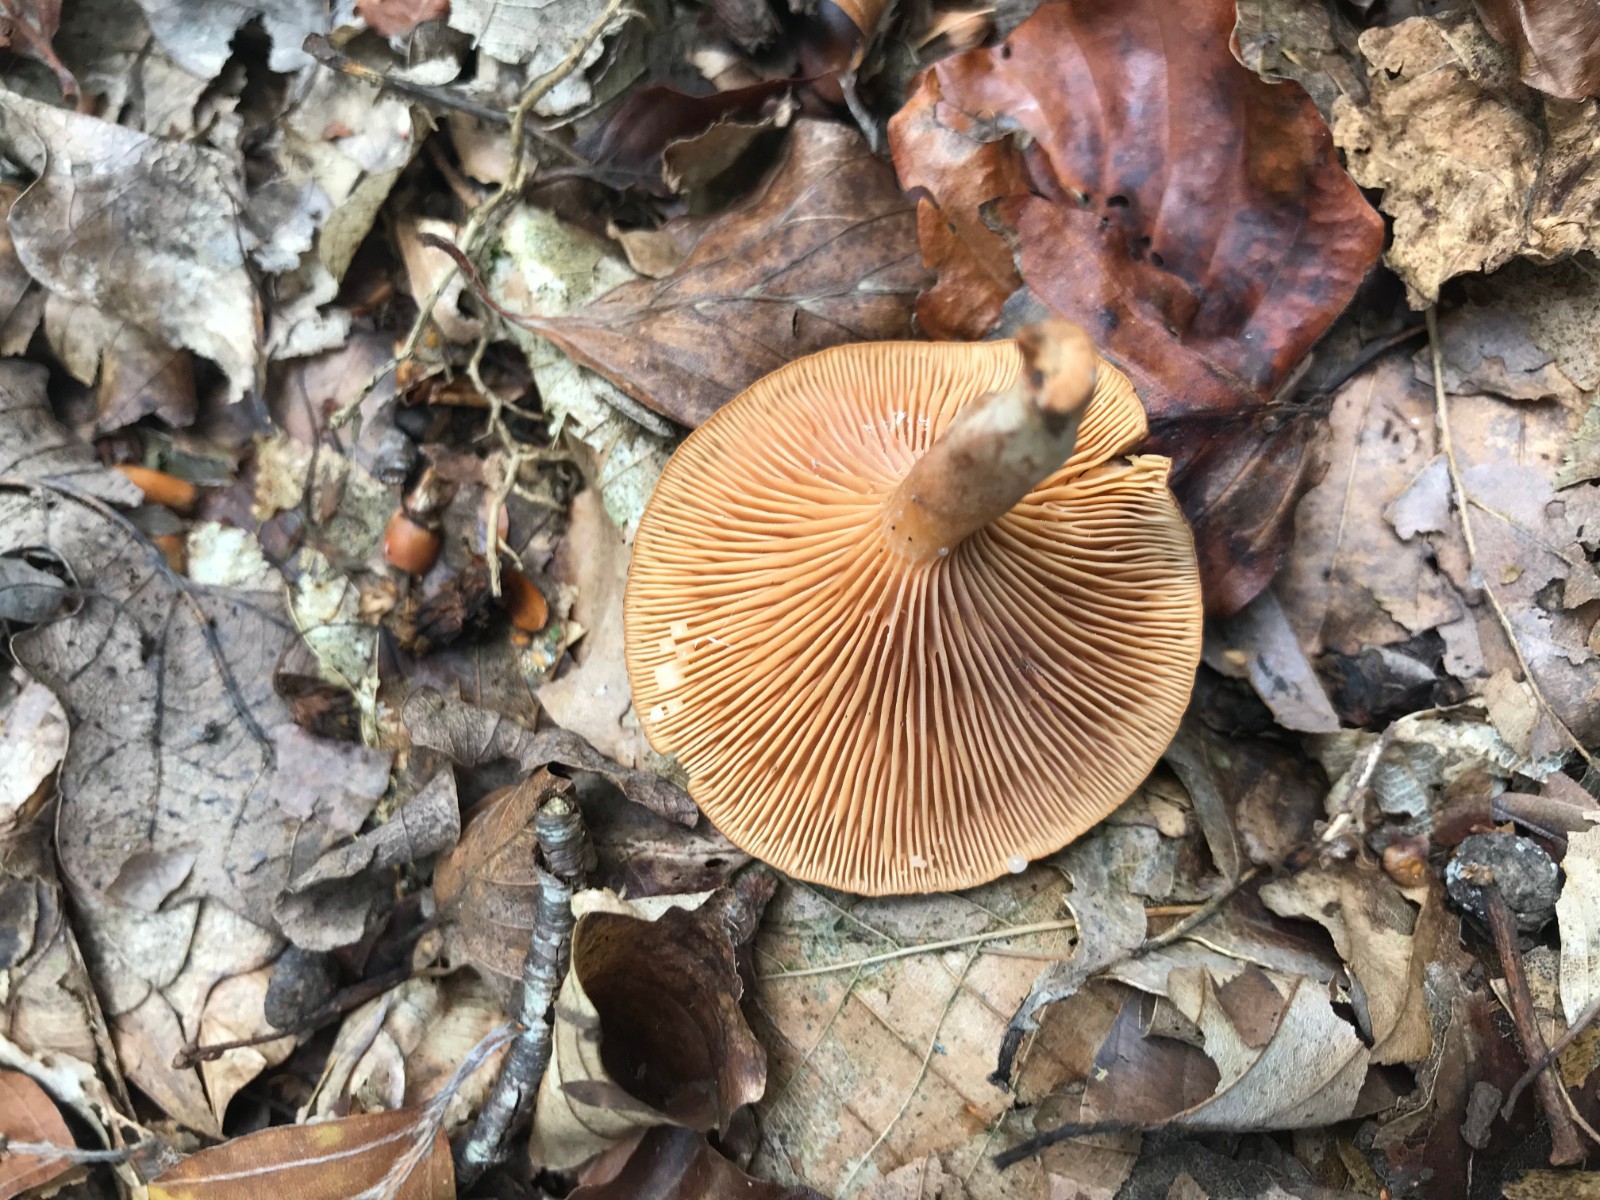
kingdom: Fungi
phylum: Basidiomycota
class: Agaricomycetes
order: Russulales
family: Russulaceae
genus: Lactarius
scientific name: Lactarius subdulcis
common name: sødlig mælkehat
